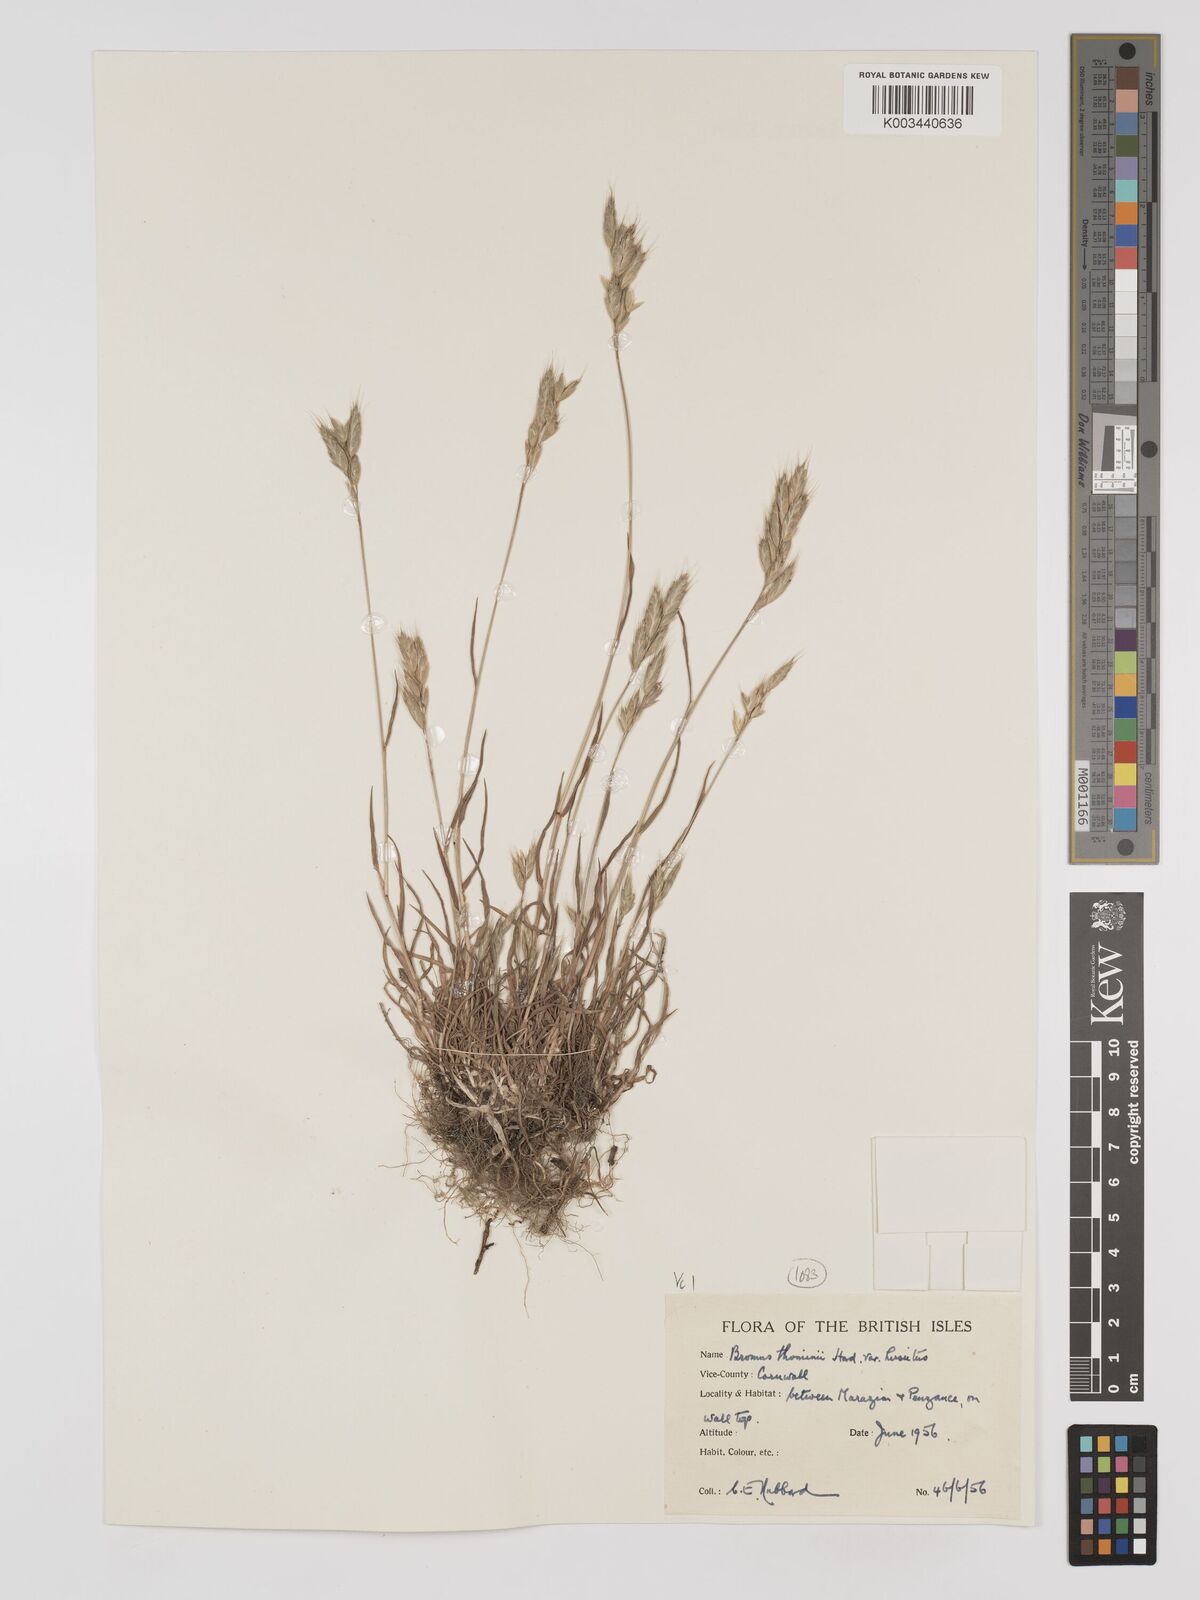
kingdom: Plantae
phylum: Tracheophyta
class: Liliopsida
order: Poales
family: Poaceae
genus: Bromus
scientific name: Bromus hordeaceus
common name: Soft brome
